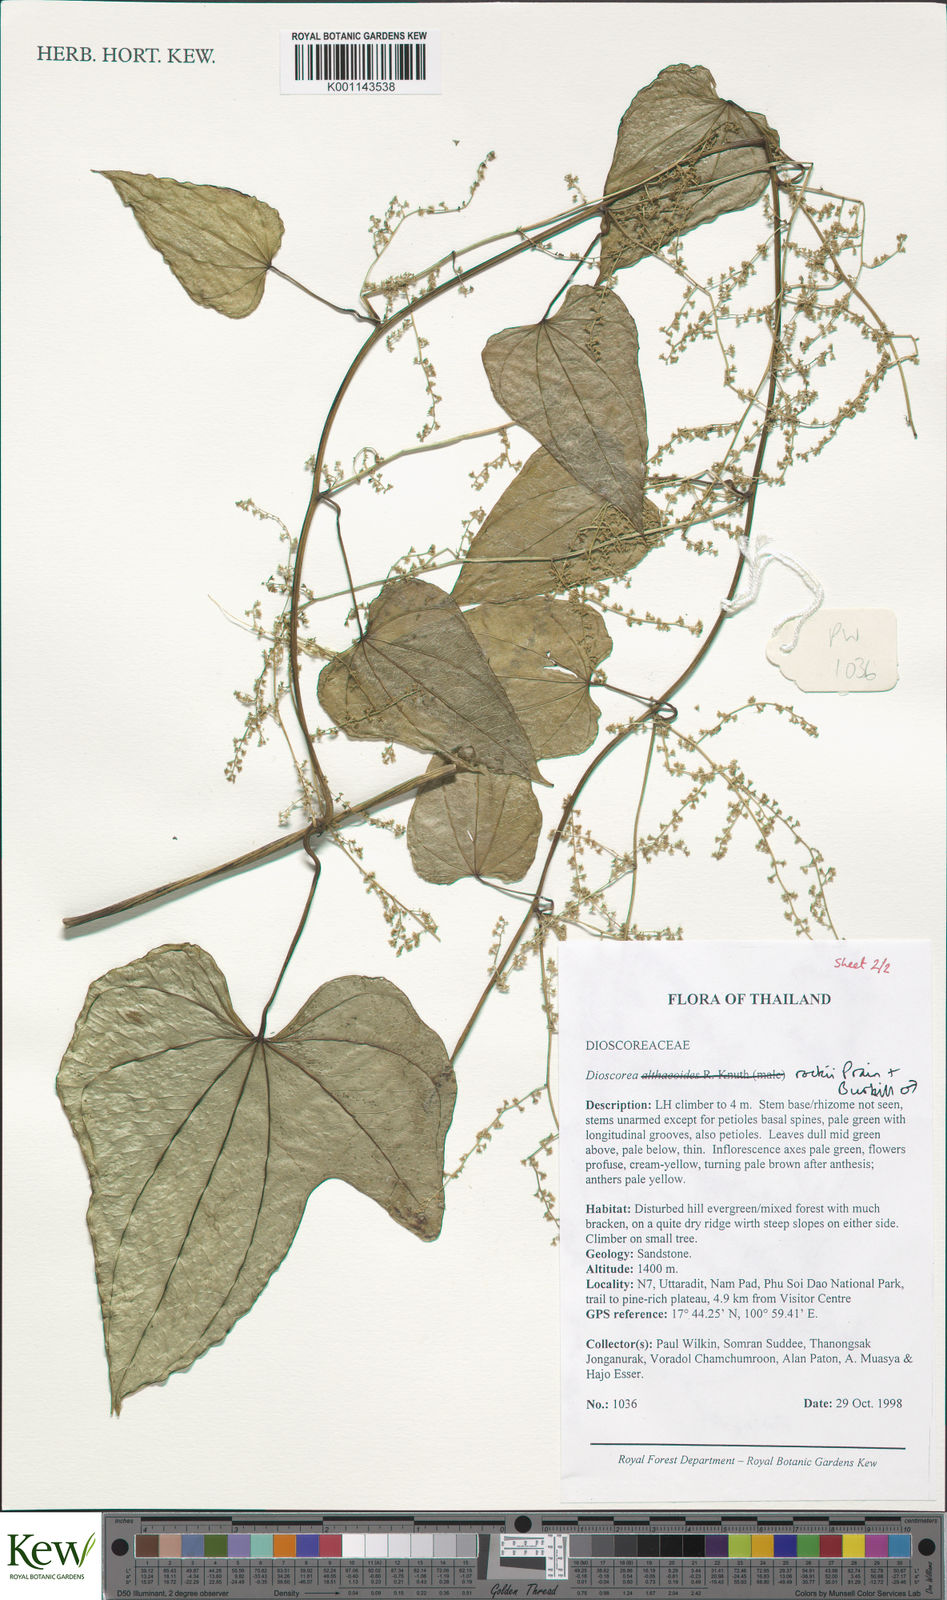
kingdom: Plantae
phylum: Tracheophyta
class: Liliopsida
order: Dioscoreales
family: Dioscoreaceae
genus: Dioscorea
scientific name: Dioscorea rockii
